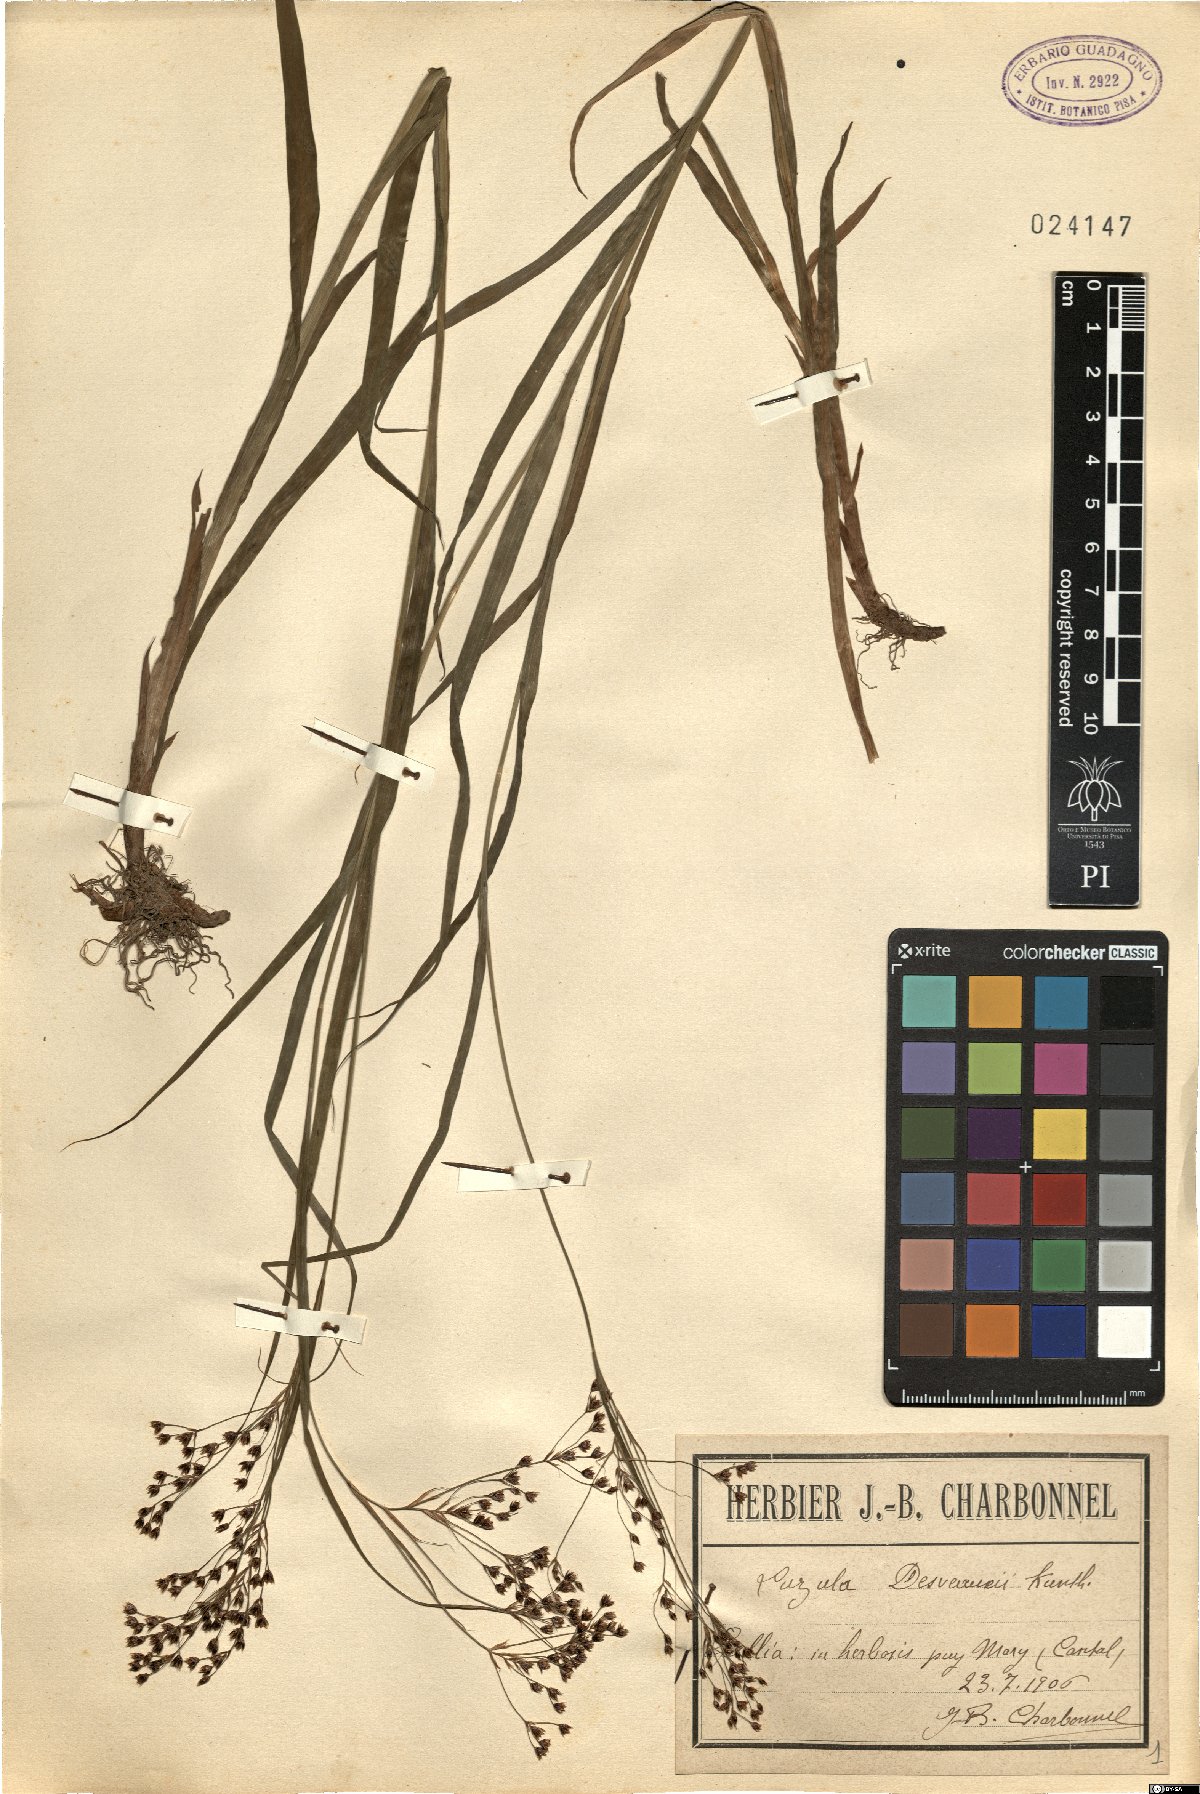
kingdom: Plantae
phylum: Tracheophyta
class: Liliopsida
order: Poales
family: Juncaceae
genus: Luzula
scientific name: Luzula desvauxii
